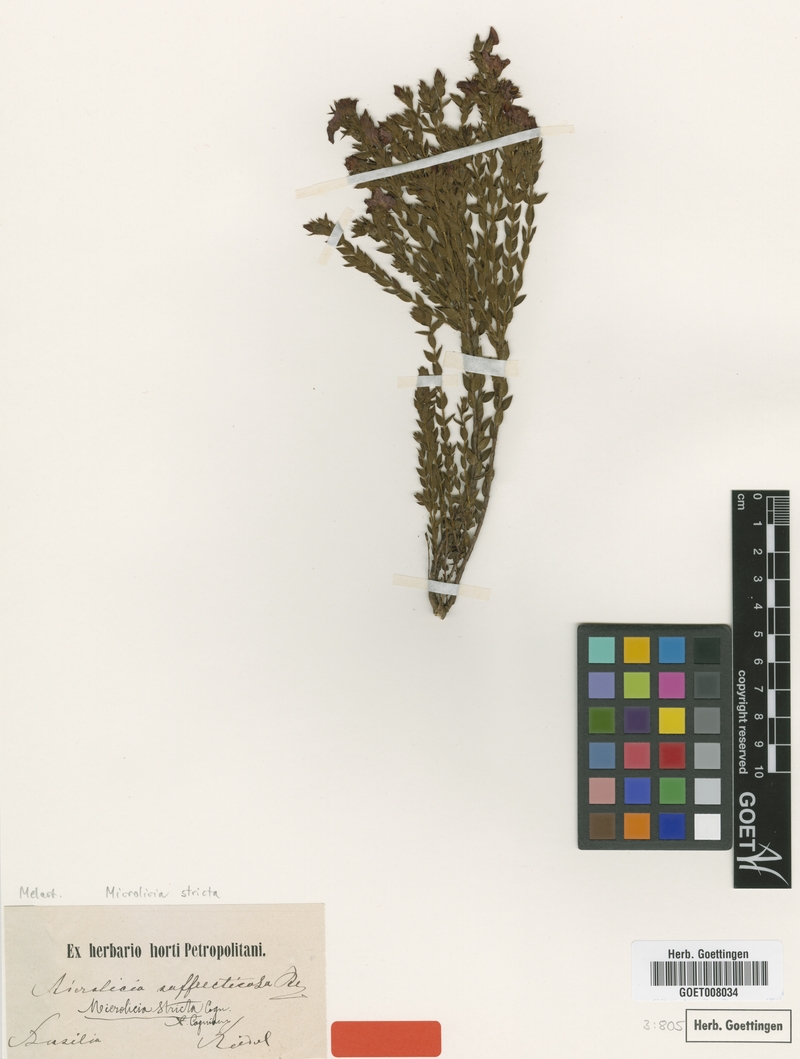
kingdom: Plantae
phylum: Tracheophyta
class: Magnoliopsida
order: Myrtales
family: Melastomataceae
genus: Microlicia
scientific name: Microlicia stricta
